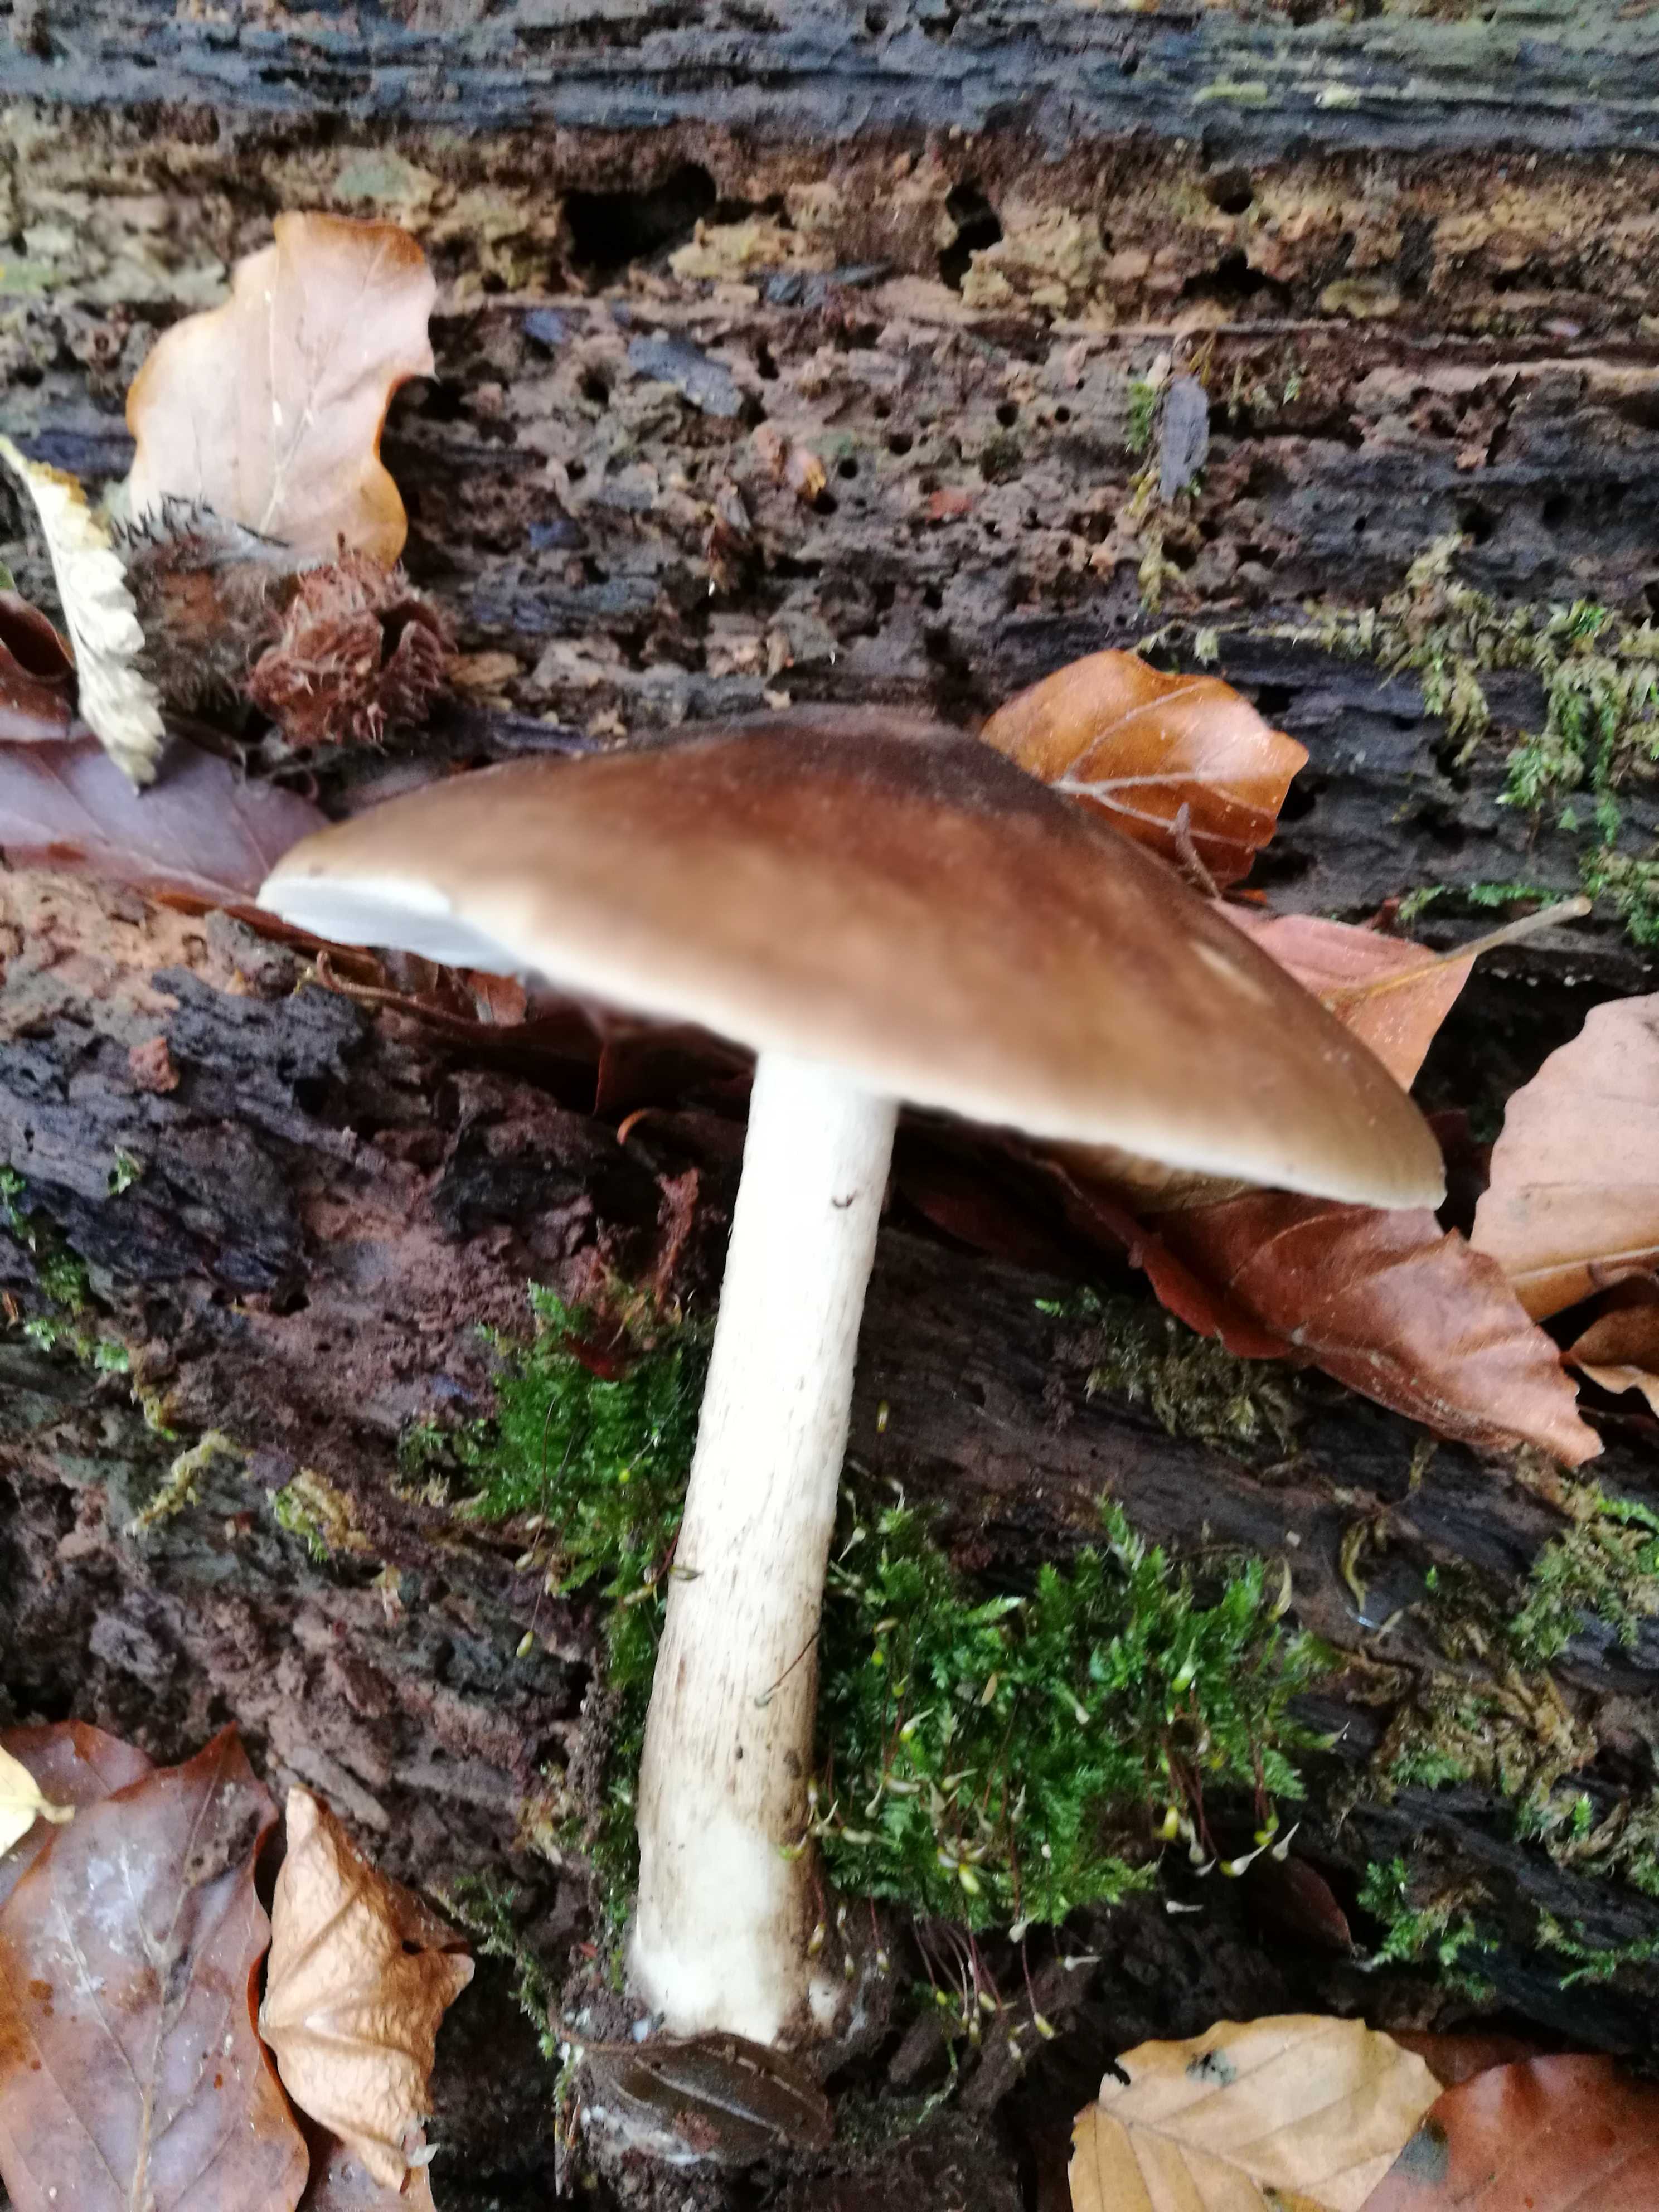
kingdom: Fungi
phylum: Basidiomycota
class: Agaricomycetes
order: Agaricales
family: Pluteaceae
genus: Pluteus
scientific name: Pluteus cervinus
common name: sodfarvet skærmhat
